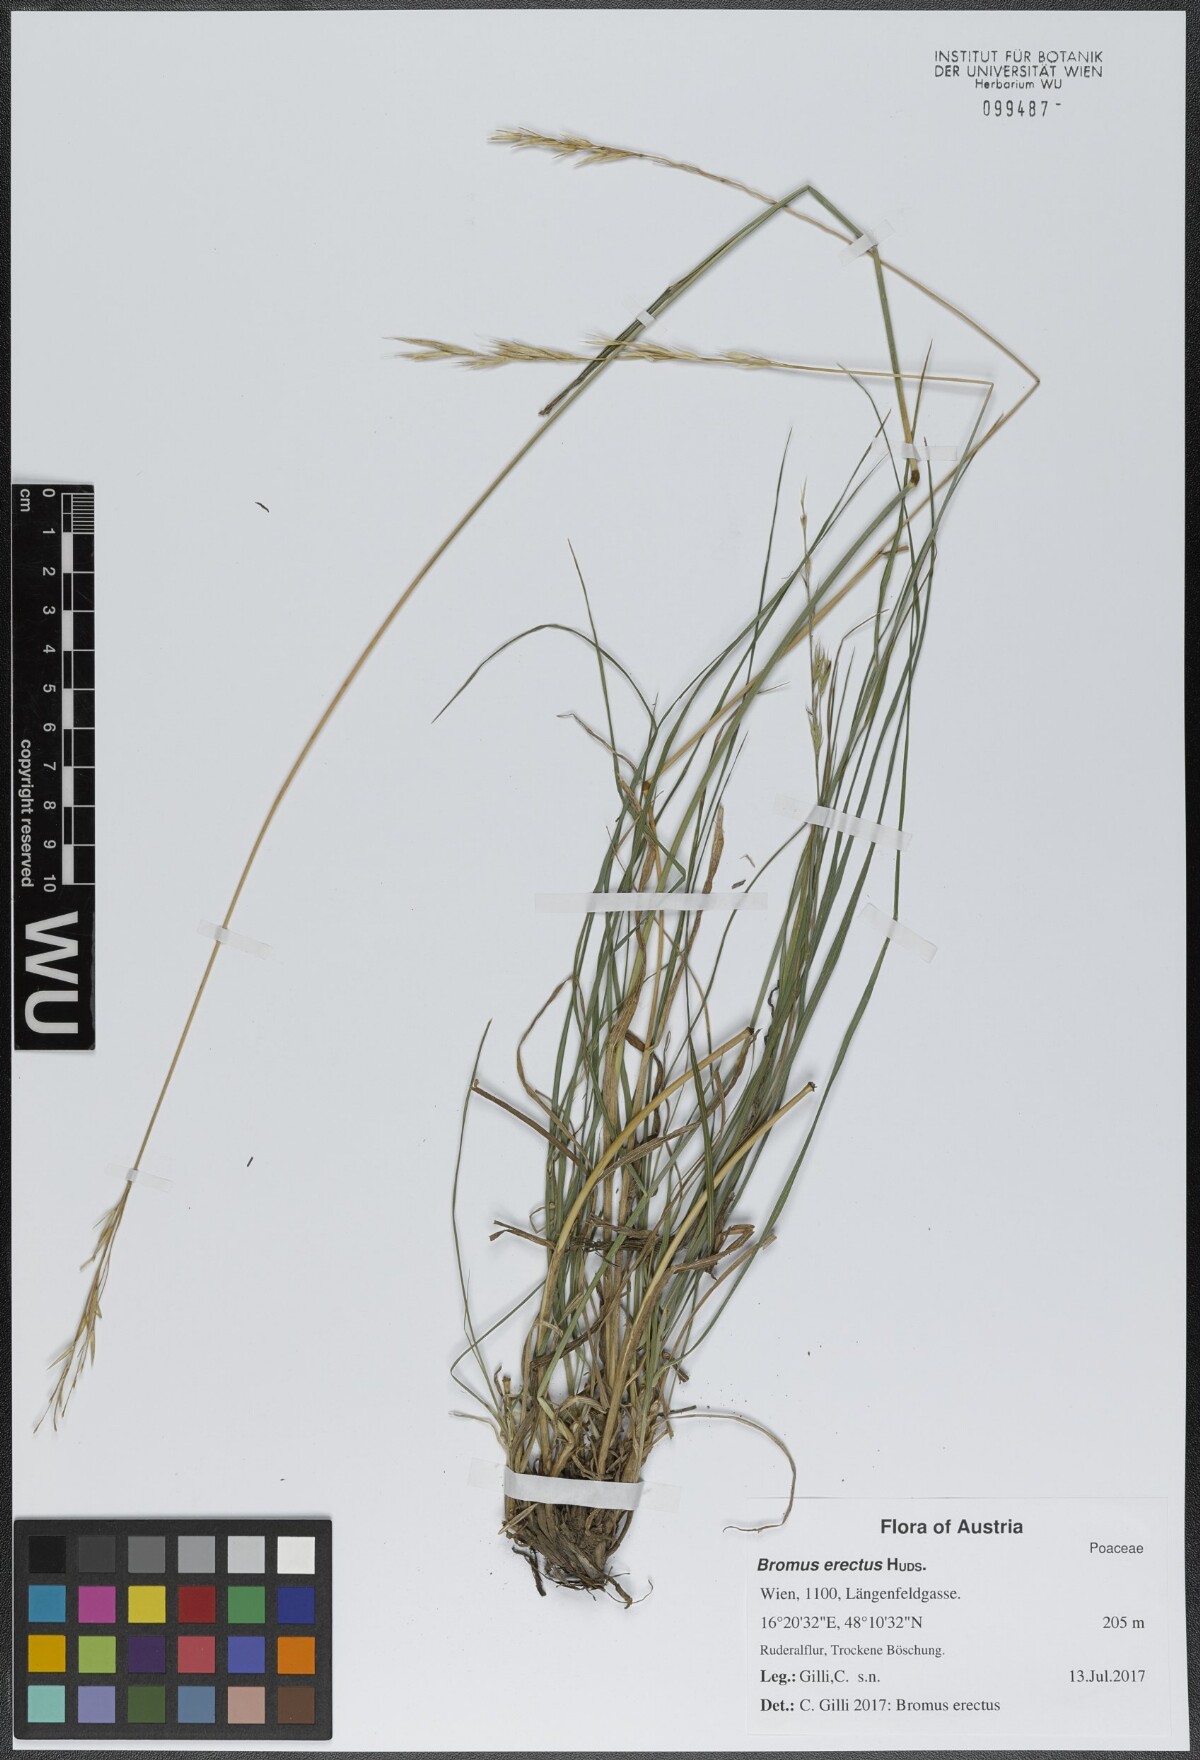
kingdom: Plantae
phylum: Tracheophyta
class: Liliopsida
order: Poales
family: Poaceae
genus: Bromus
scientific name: Bromus erectus
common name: Erect brome
